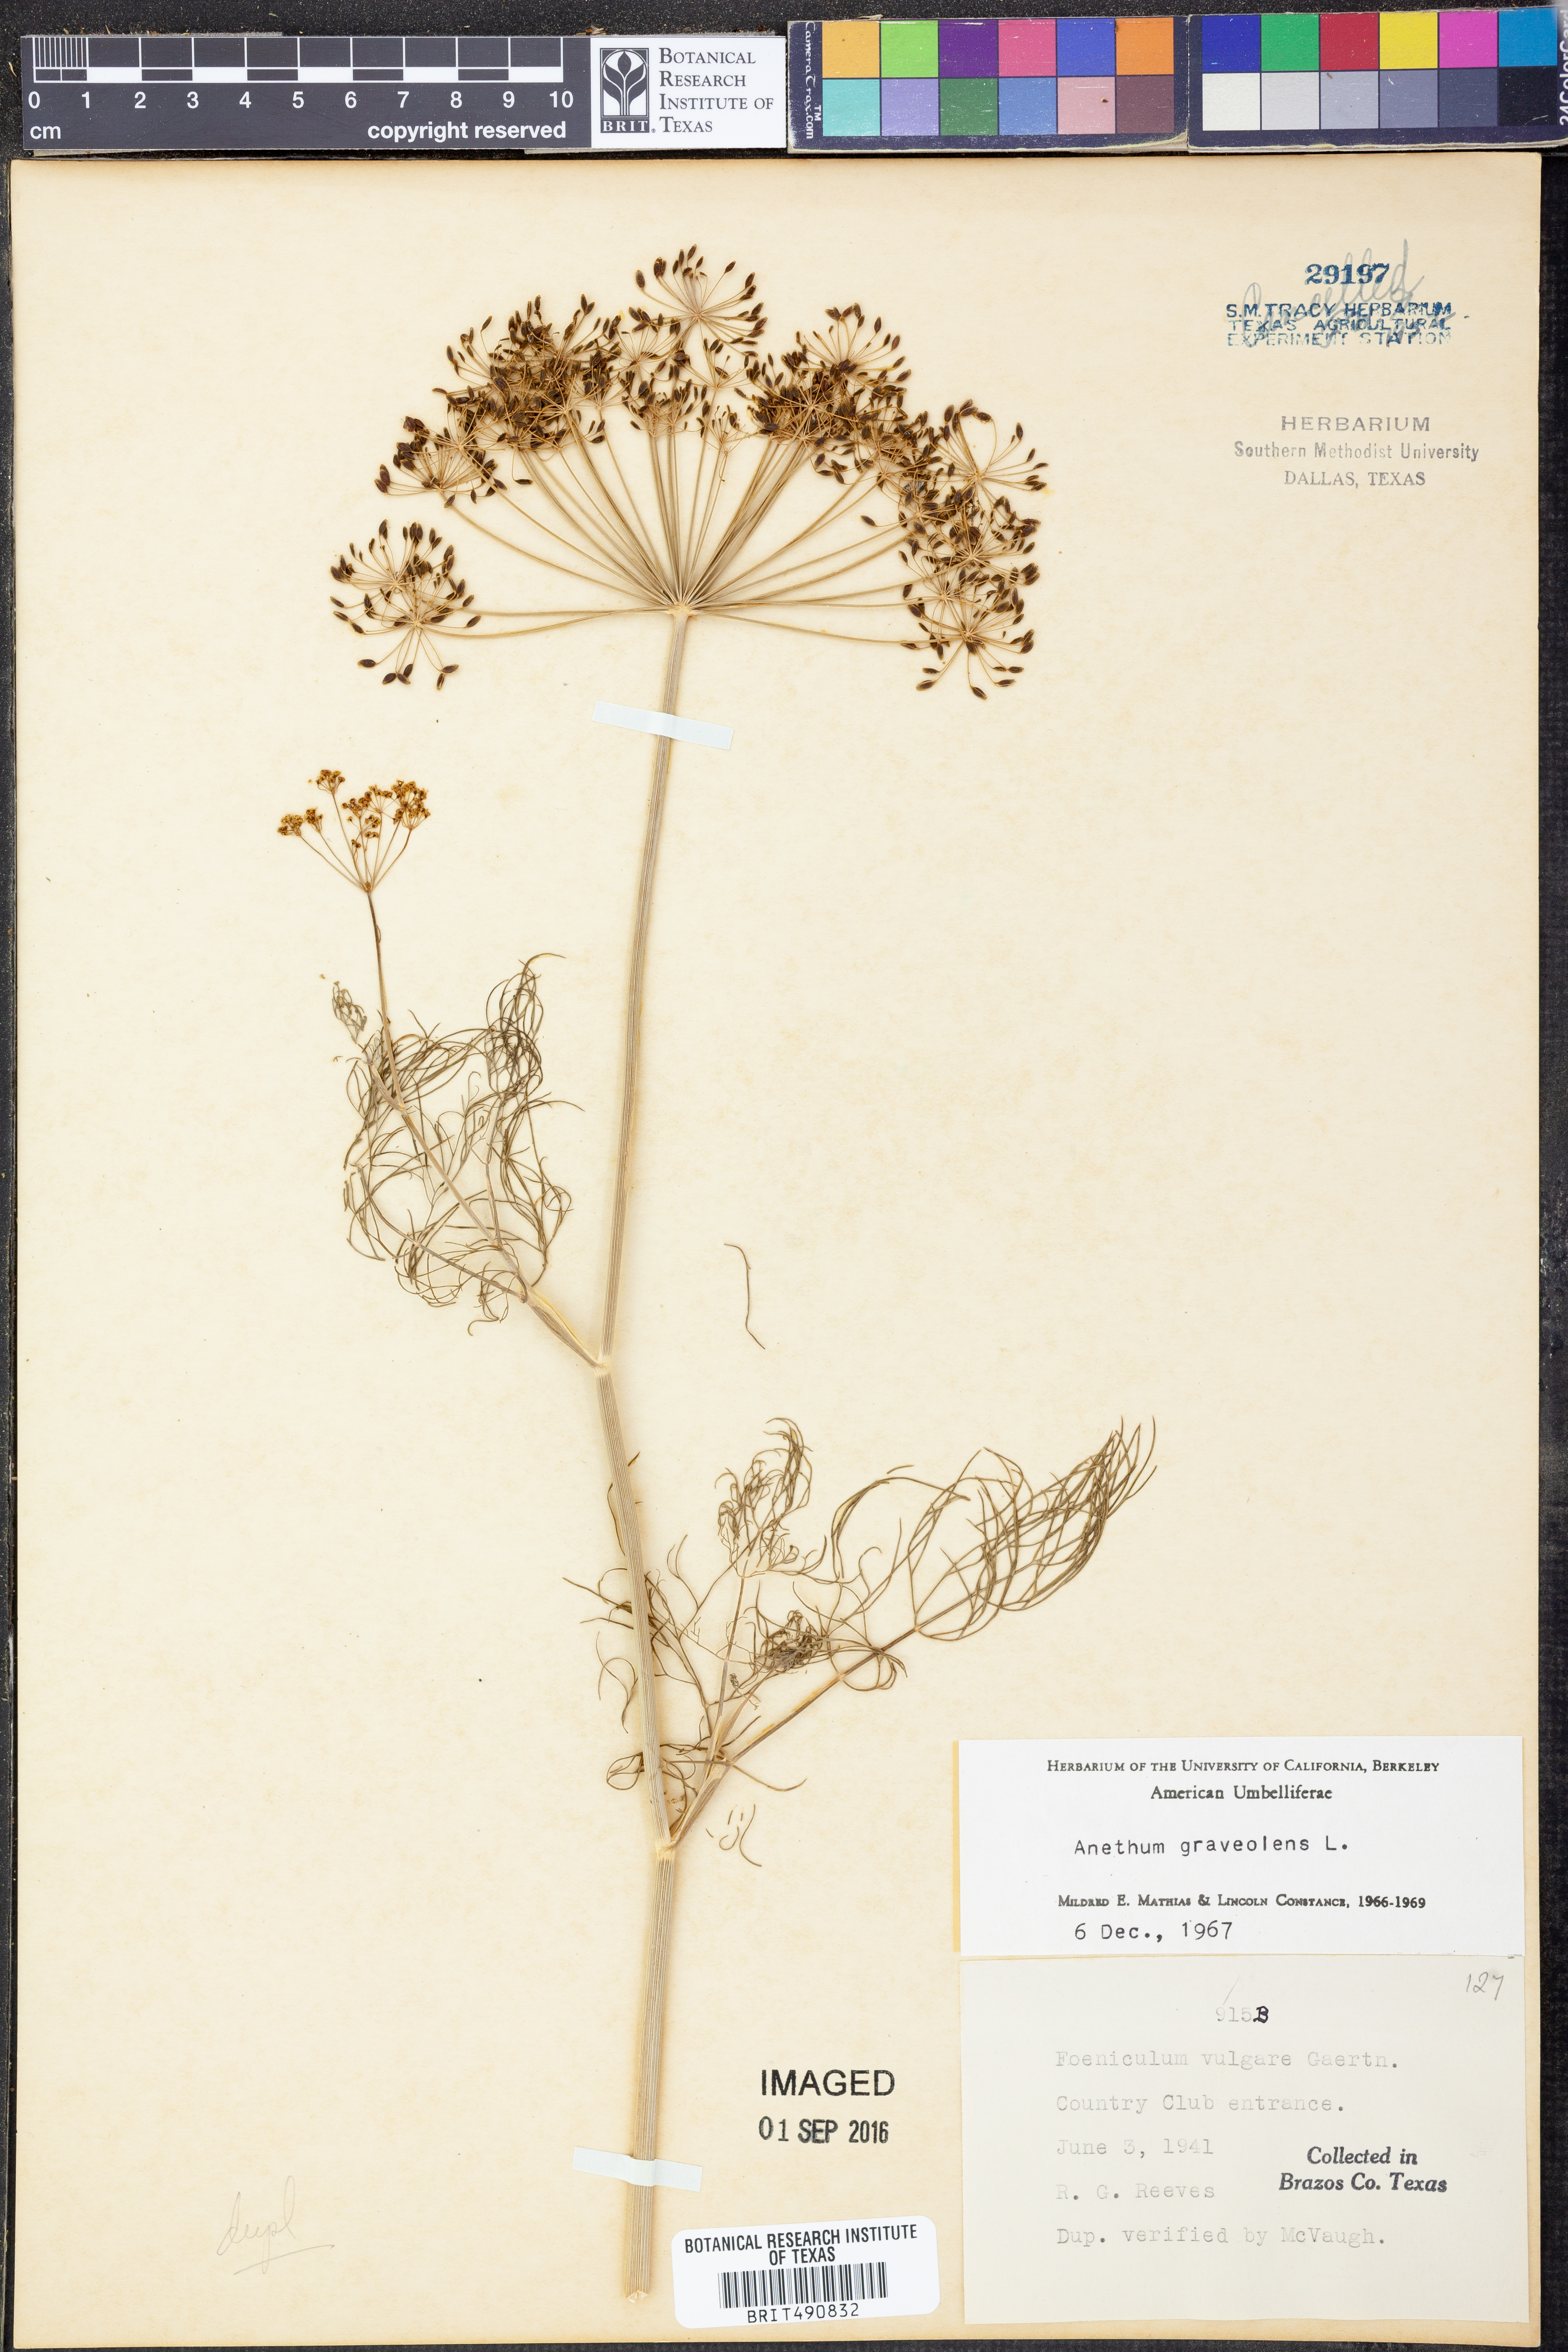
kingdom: Plantae
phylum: Tracheophyta
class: Magnoliopsida
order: Apiales
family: Apiaceae
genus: Anethum
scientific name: Anethum graveolens
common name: Dill
